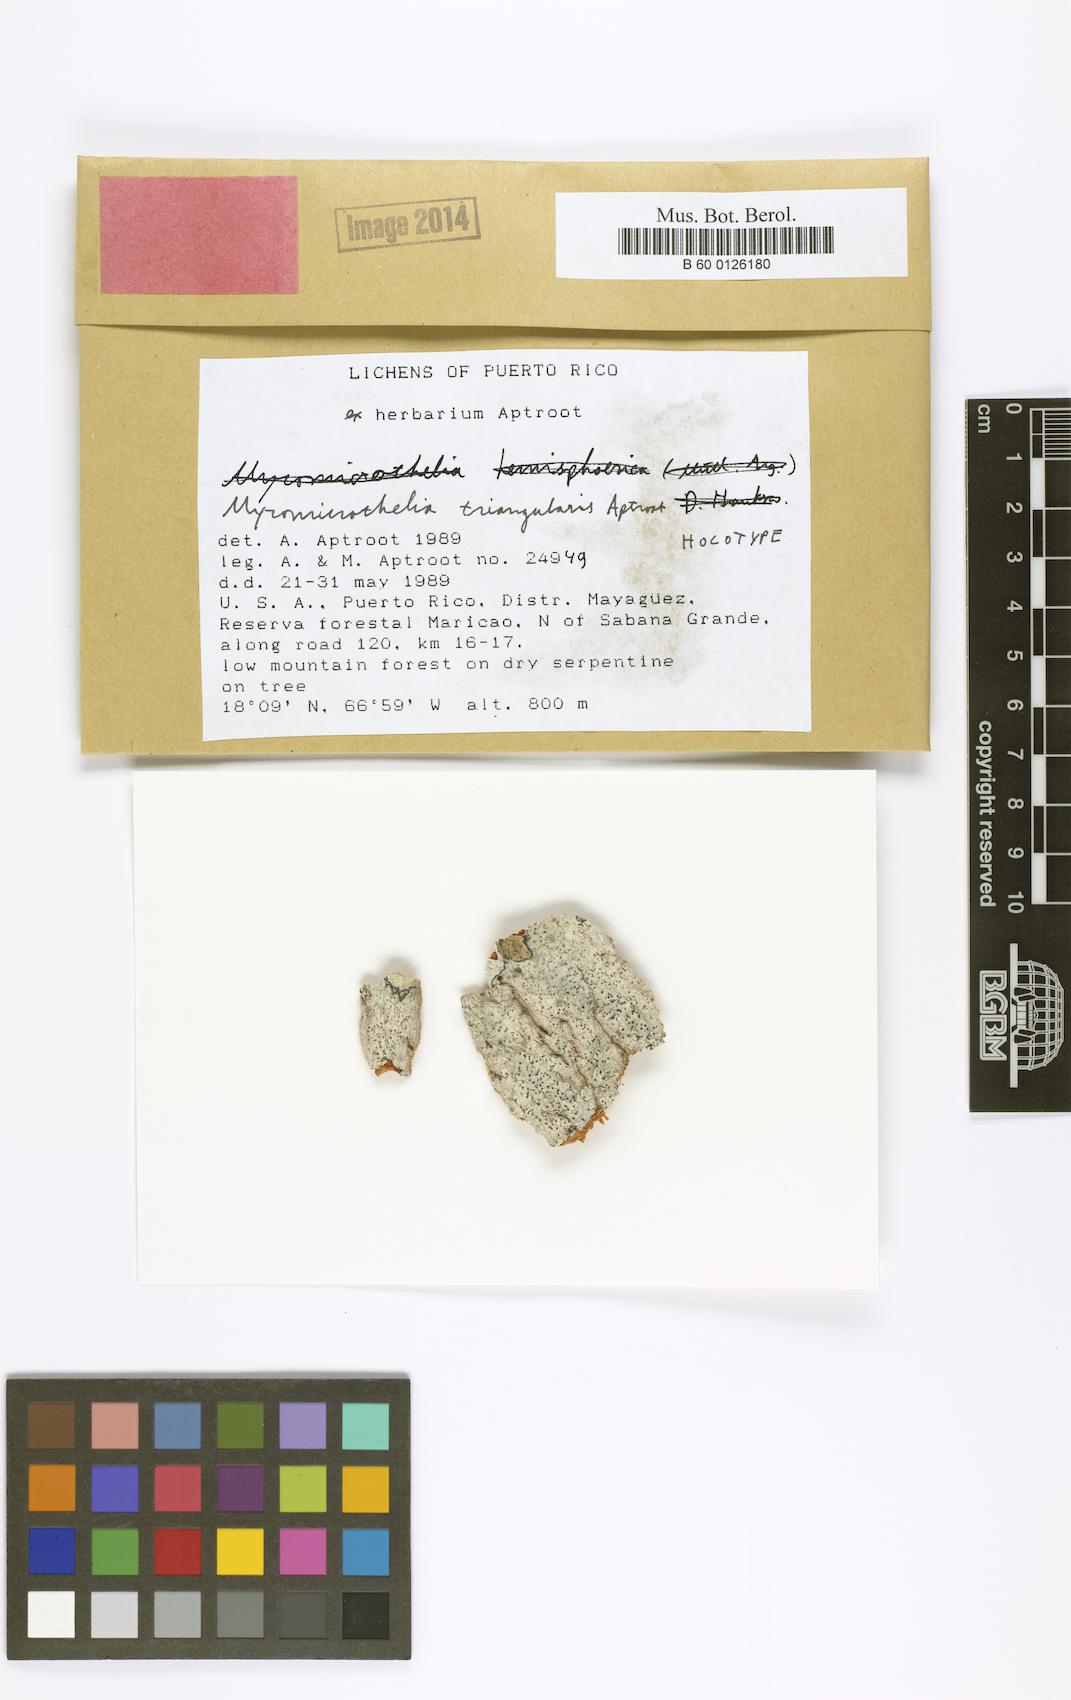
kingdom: Fungi
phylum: Ascomycota
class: Dothideomycetes
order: Trypetheliales
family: Trypetheliaceae
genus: Bogoriella
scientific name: Bogoriella triangularis
